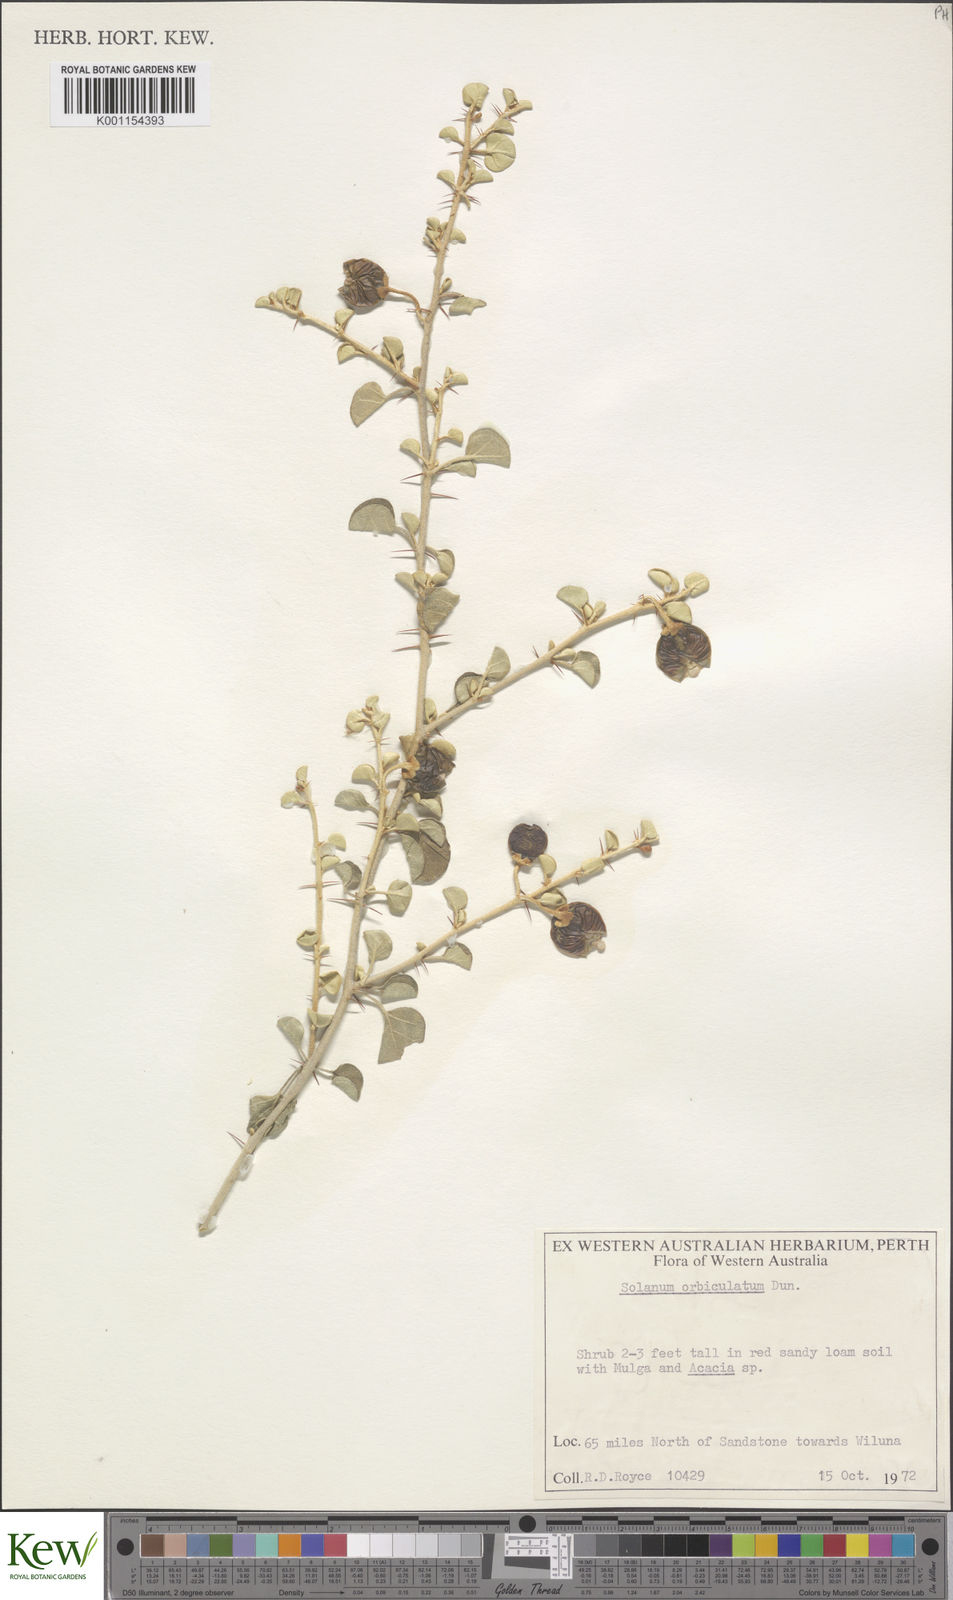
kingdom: Plantae
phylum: Tracheophyta
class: Magnoliopsida
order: Solanales
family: Solanaceae
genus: Solanum
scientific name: Solanum orbiculatum
